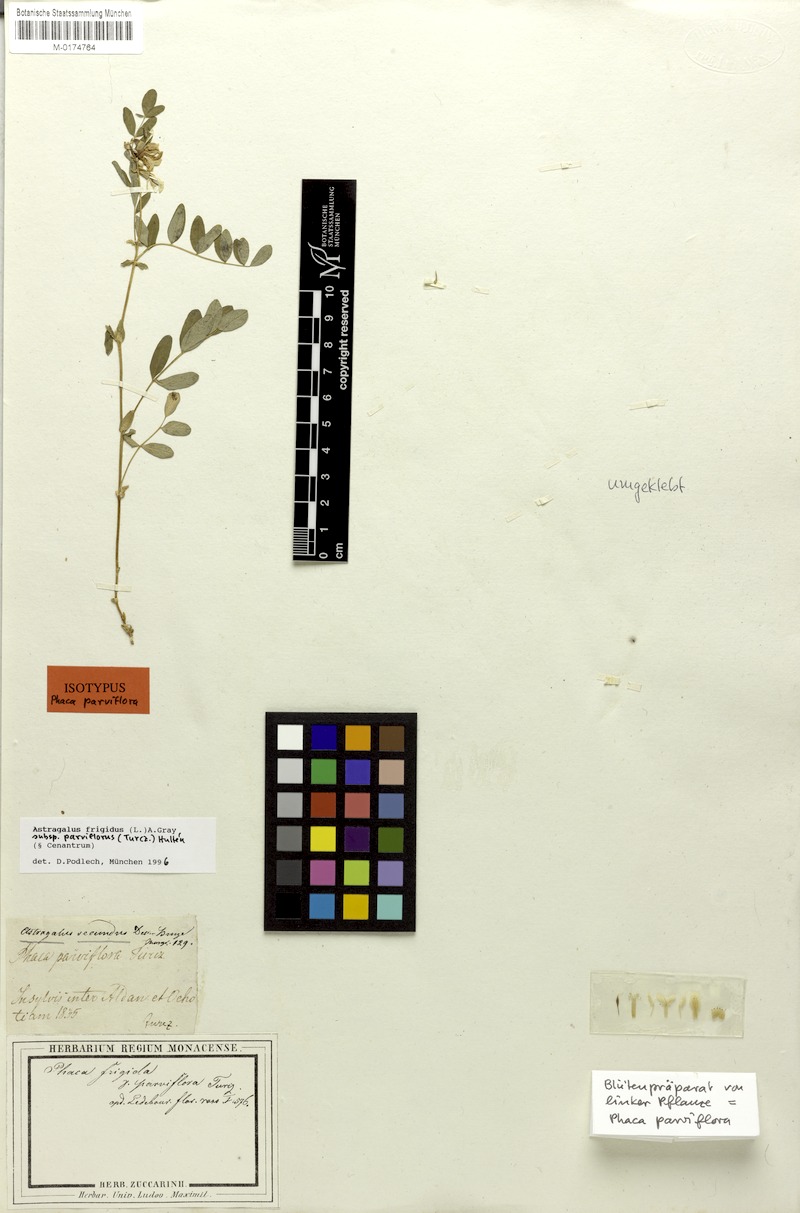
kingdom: Plantae
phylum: Tracheophyta
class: Magnoliopsida
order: Fabales
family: Fabaceae
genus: Astragalus
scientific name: Astragalus frigidus
